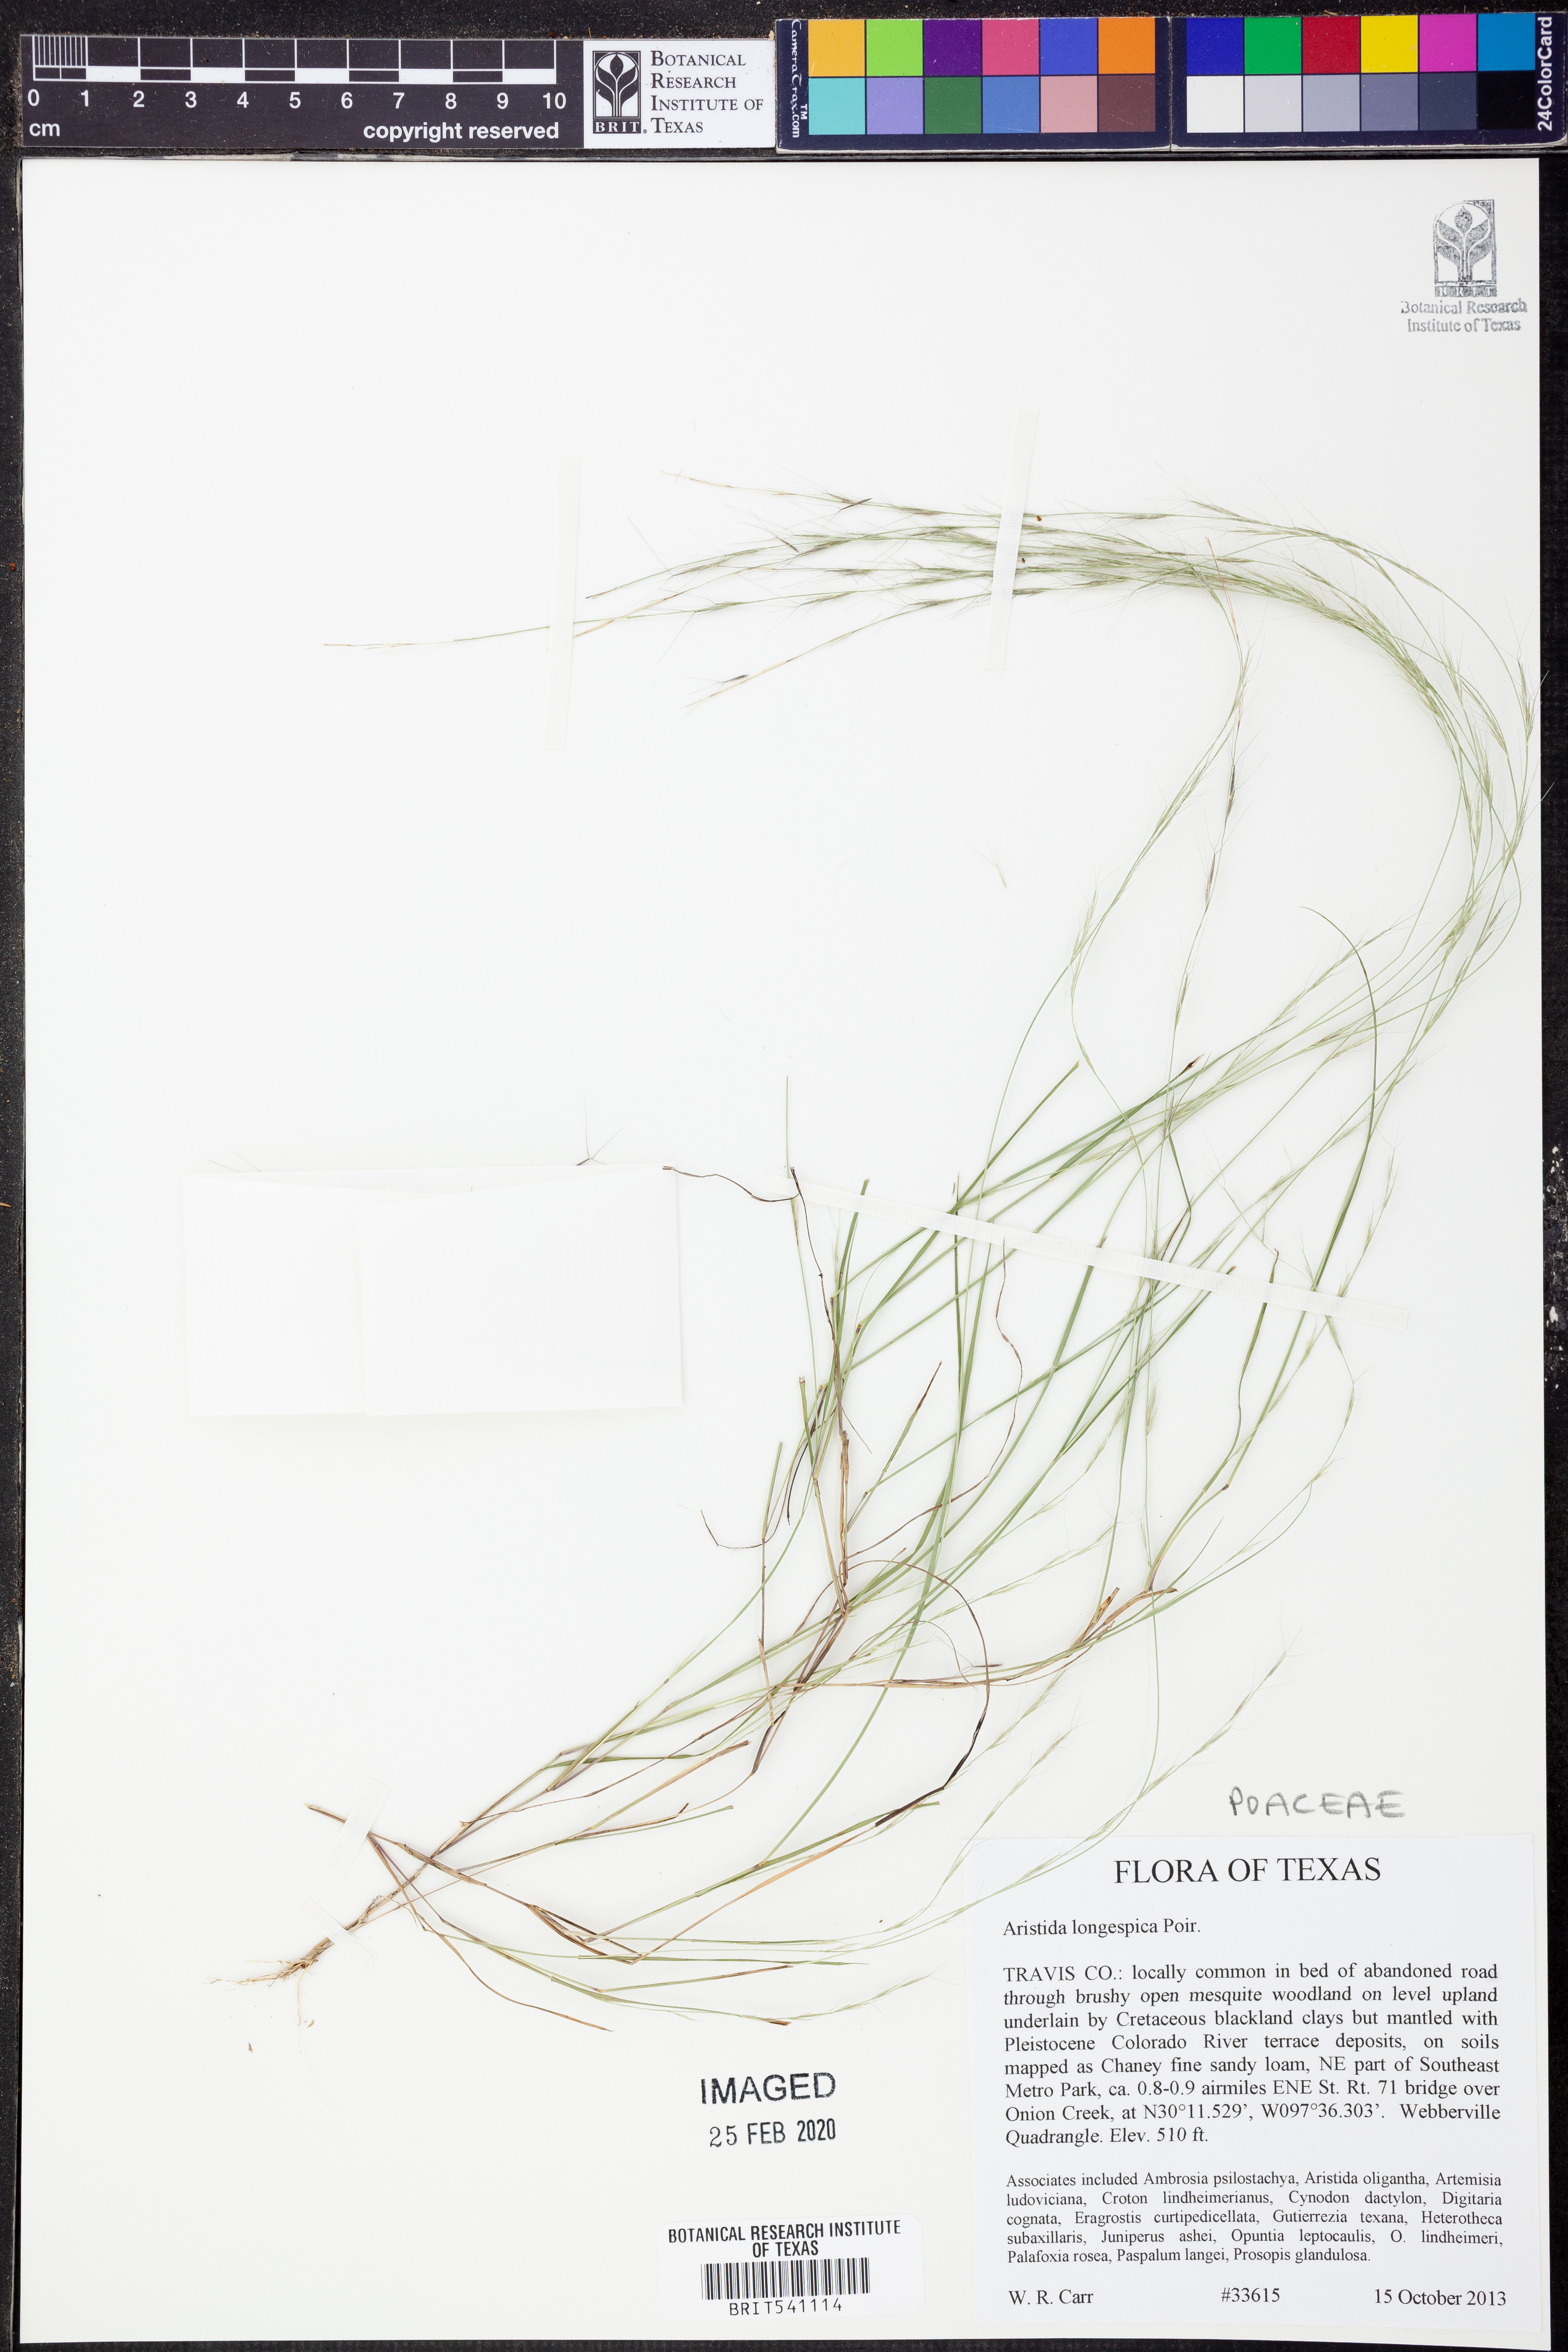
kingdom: Plantae
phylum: Tracheophyta
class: Liliopsida
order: Poales
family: Poaceae
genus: Aristida
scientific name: Aristida longespica
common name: Long-spiked triple-awned grass
